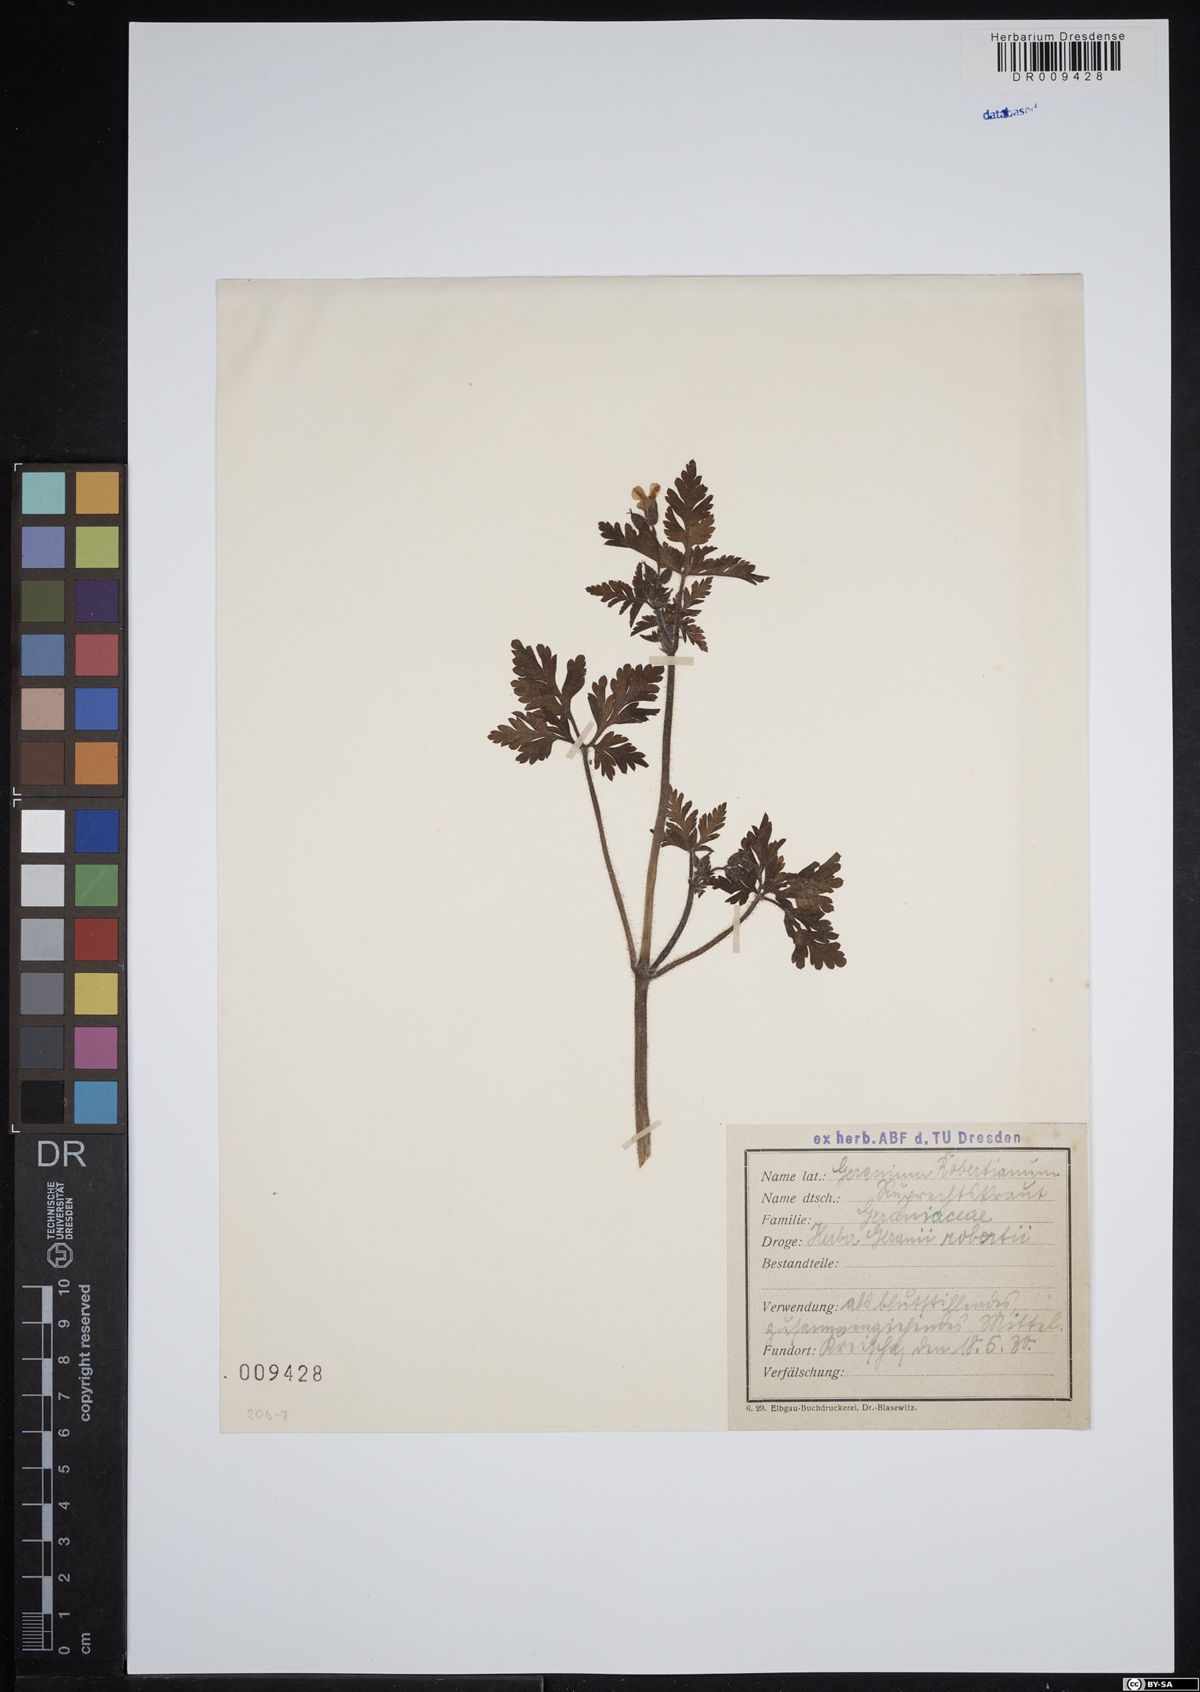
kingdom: Plantae
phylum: Tracheophyta
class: Magnoliopsida
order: Geraniales
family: Geraniaceae
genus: Geranium
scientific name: Geranium robertianum
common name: Herb-robert
